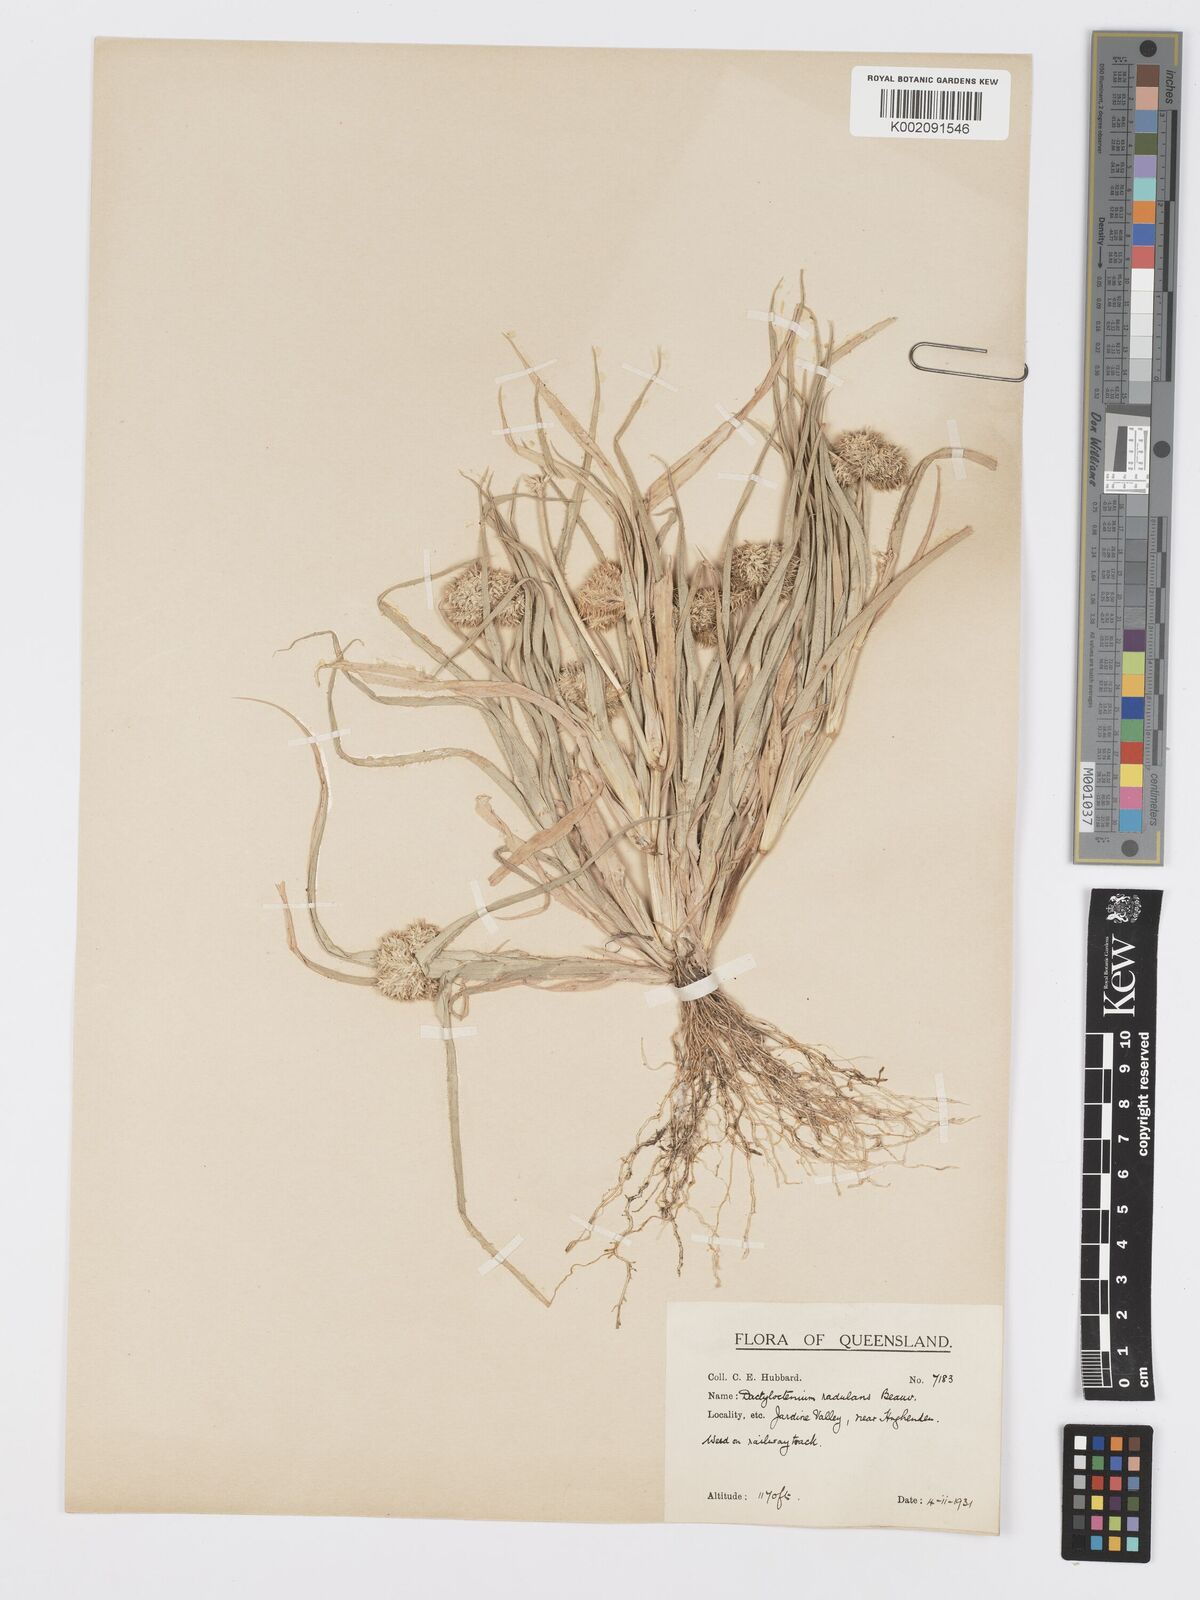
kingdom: Plantae
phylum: Tracheophyta
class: Liliopsida
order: Poales
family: Poaceae
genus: Dactyloctenium
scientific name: Dactyloctenium radulans
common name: Button-grass
